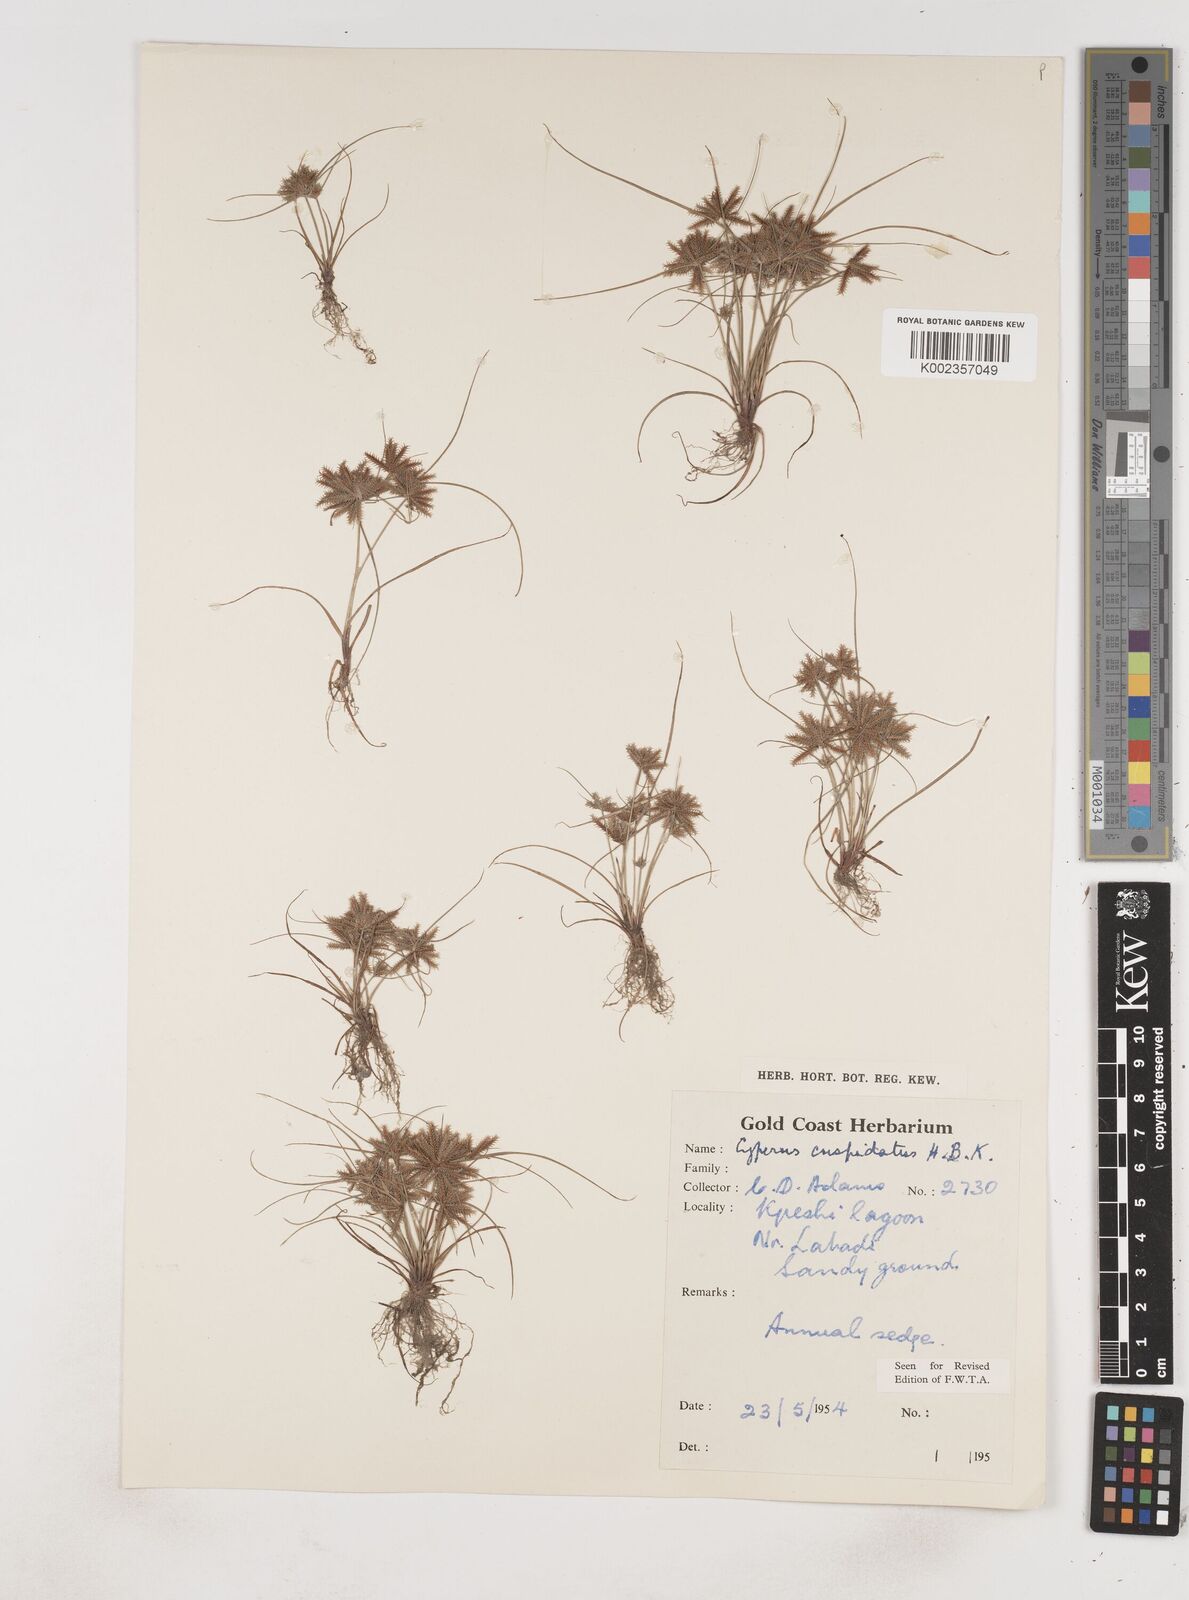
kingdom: Plantae
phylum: Tracheophyta
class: Liliopsida
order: Poales
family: Cyperaceae
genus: Cyperus
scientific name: Cyperus
